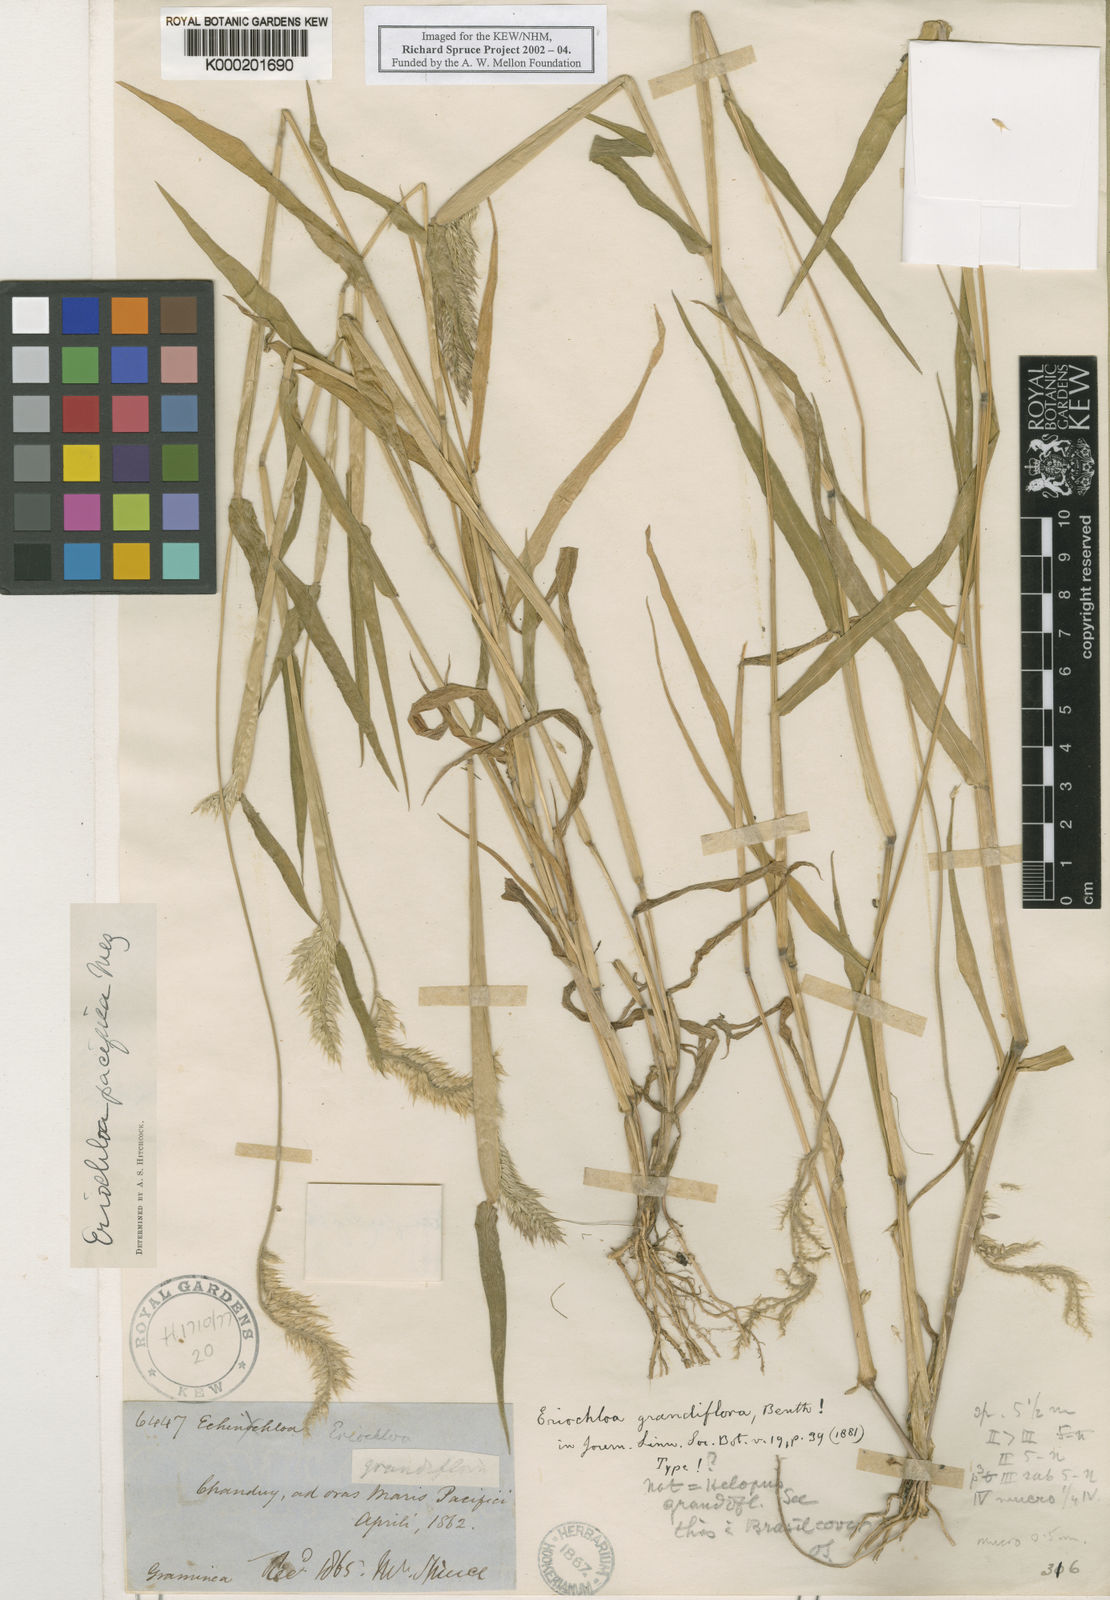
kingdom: Plantae
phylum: Tracheophyta
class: Liliopsida
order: Poales
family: Poaceae
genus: Eriochloa
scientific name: Eriochloa pacifica
